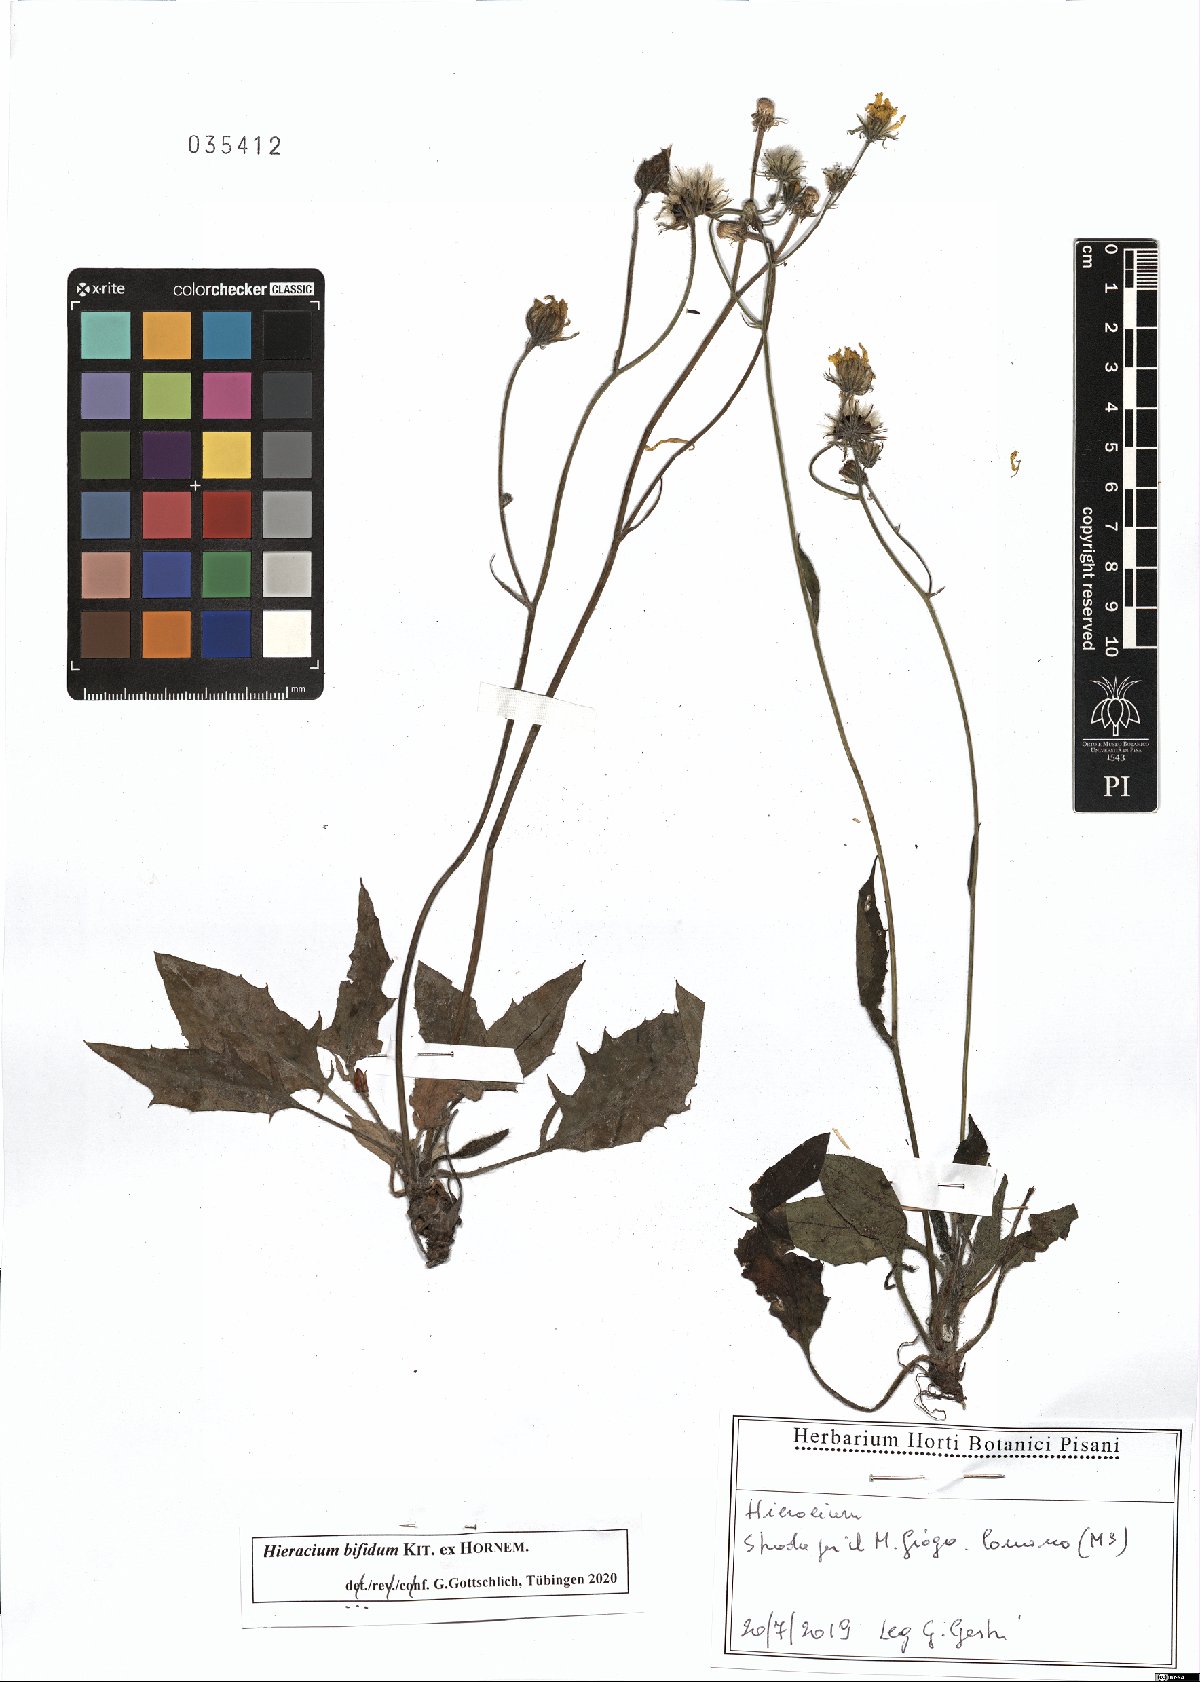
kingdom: Plantae
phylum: Tracheophyta
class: Magnoliopsida
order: Asterales
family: Asteraceae
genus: Hieracium
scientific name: Hieracium bifidum
